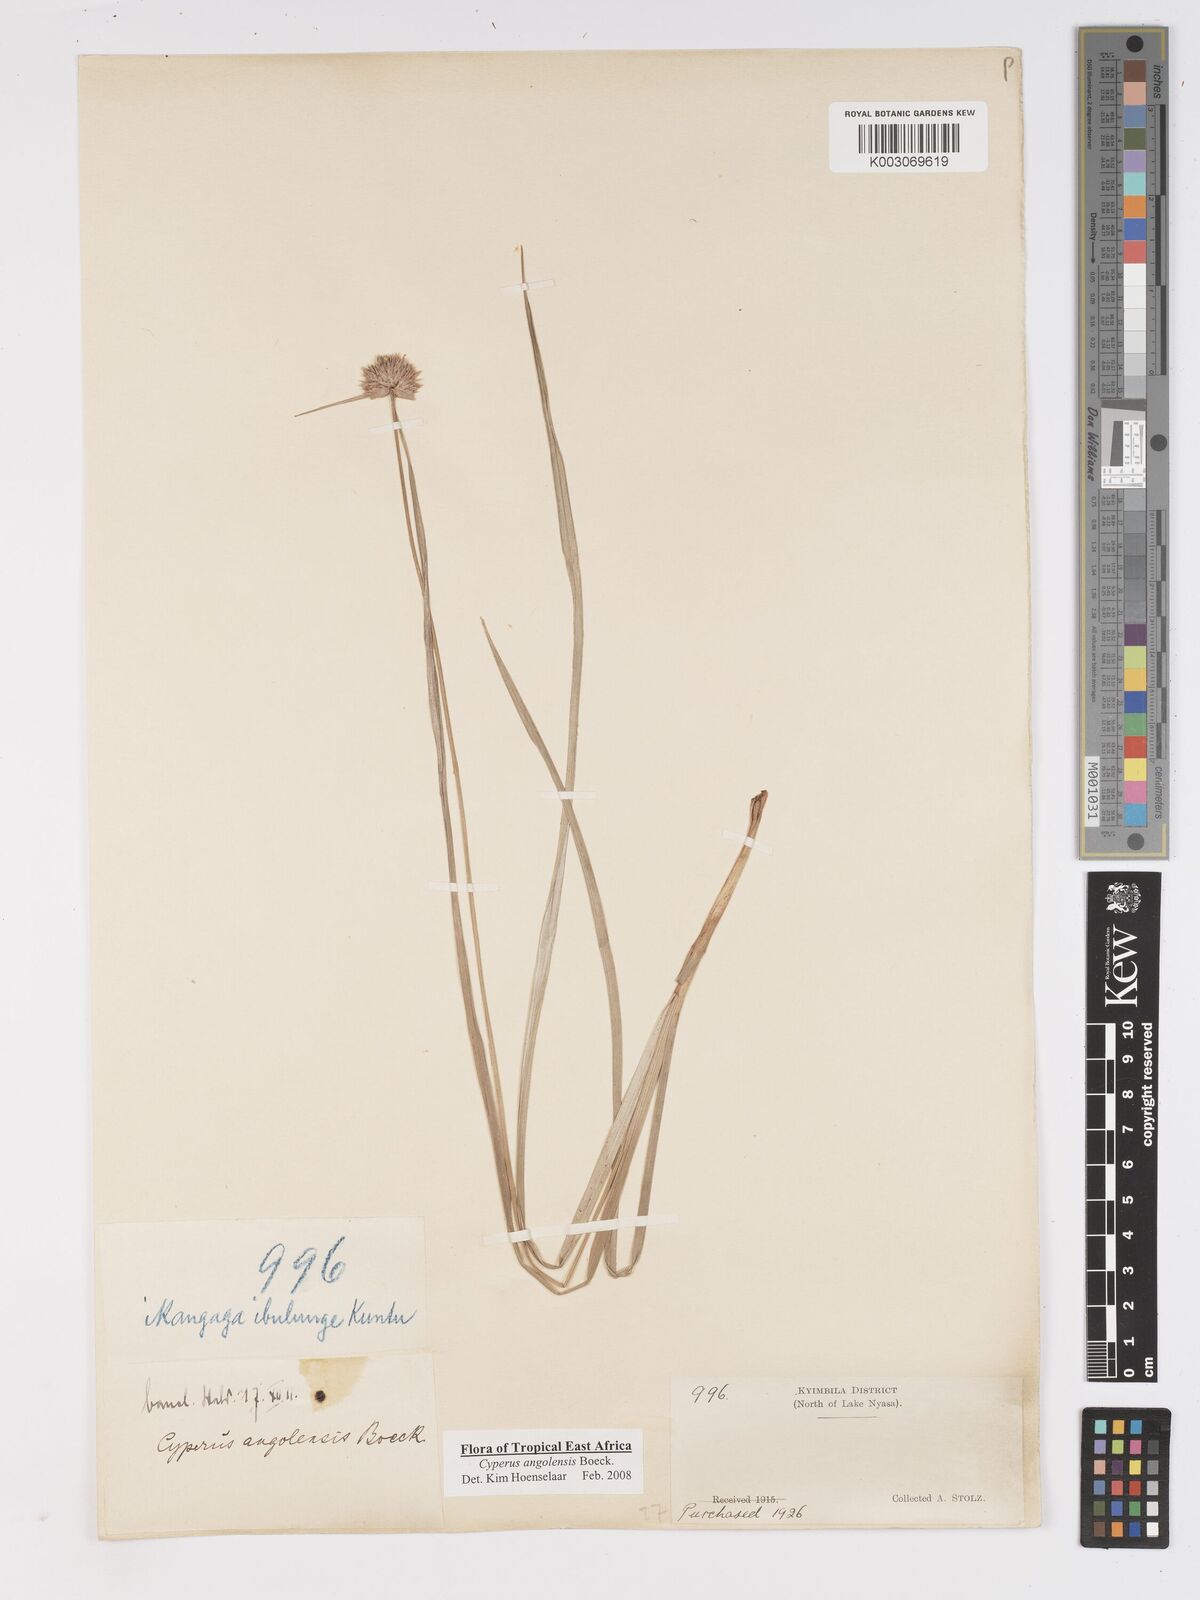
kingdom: Plantae
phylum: Tracheophyta
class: Liliopsida
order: Poales
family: Cyperaceae
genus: Cyperus
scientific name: Cyperus angolensis
